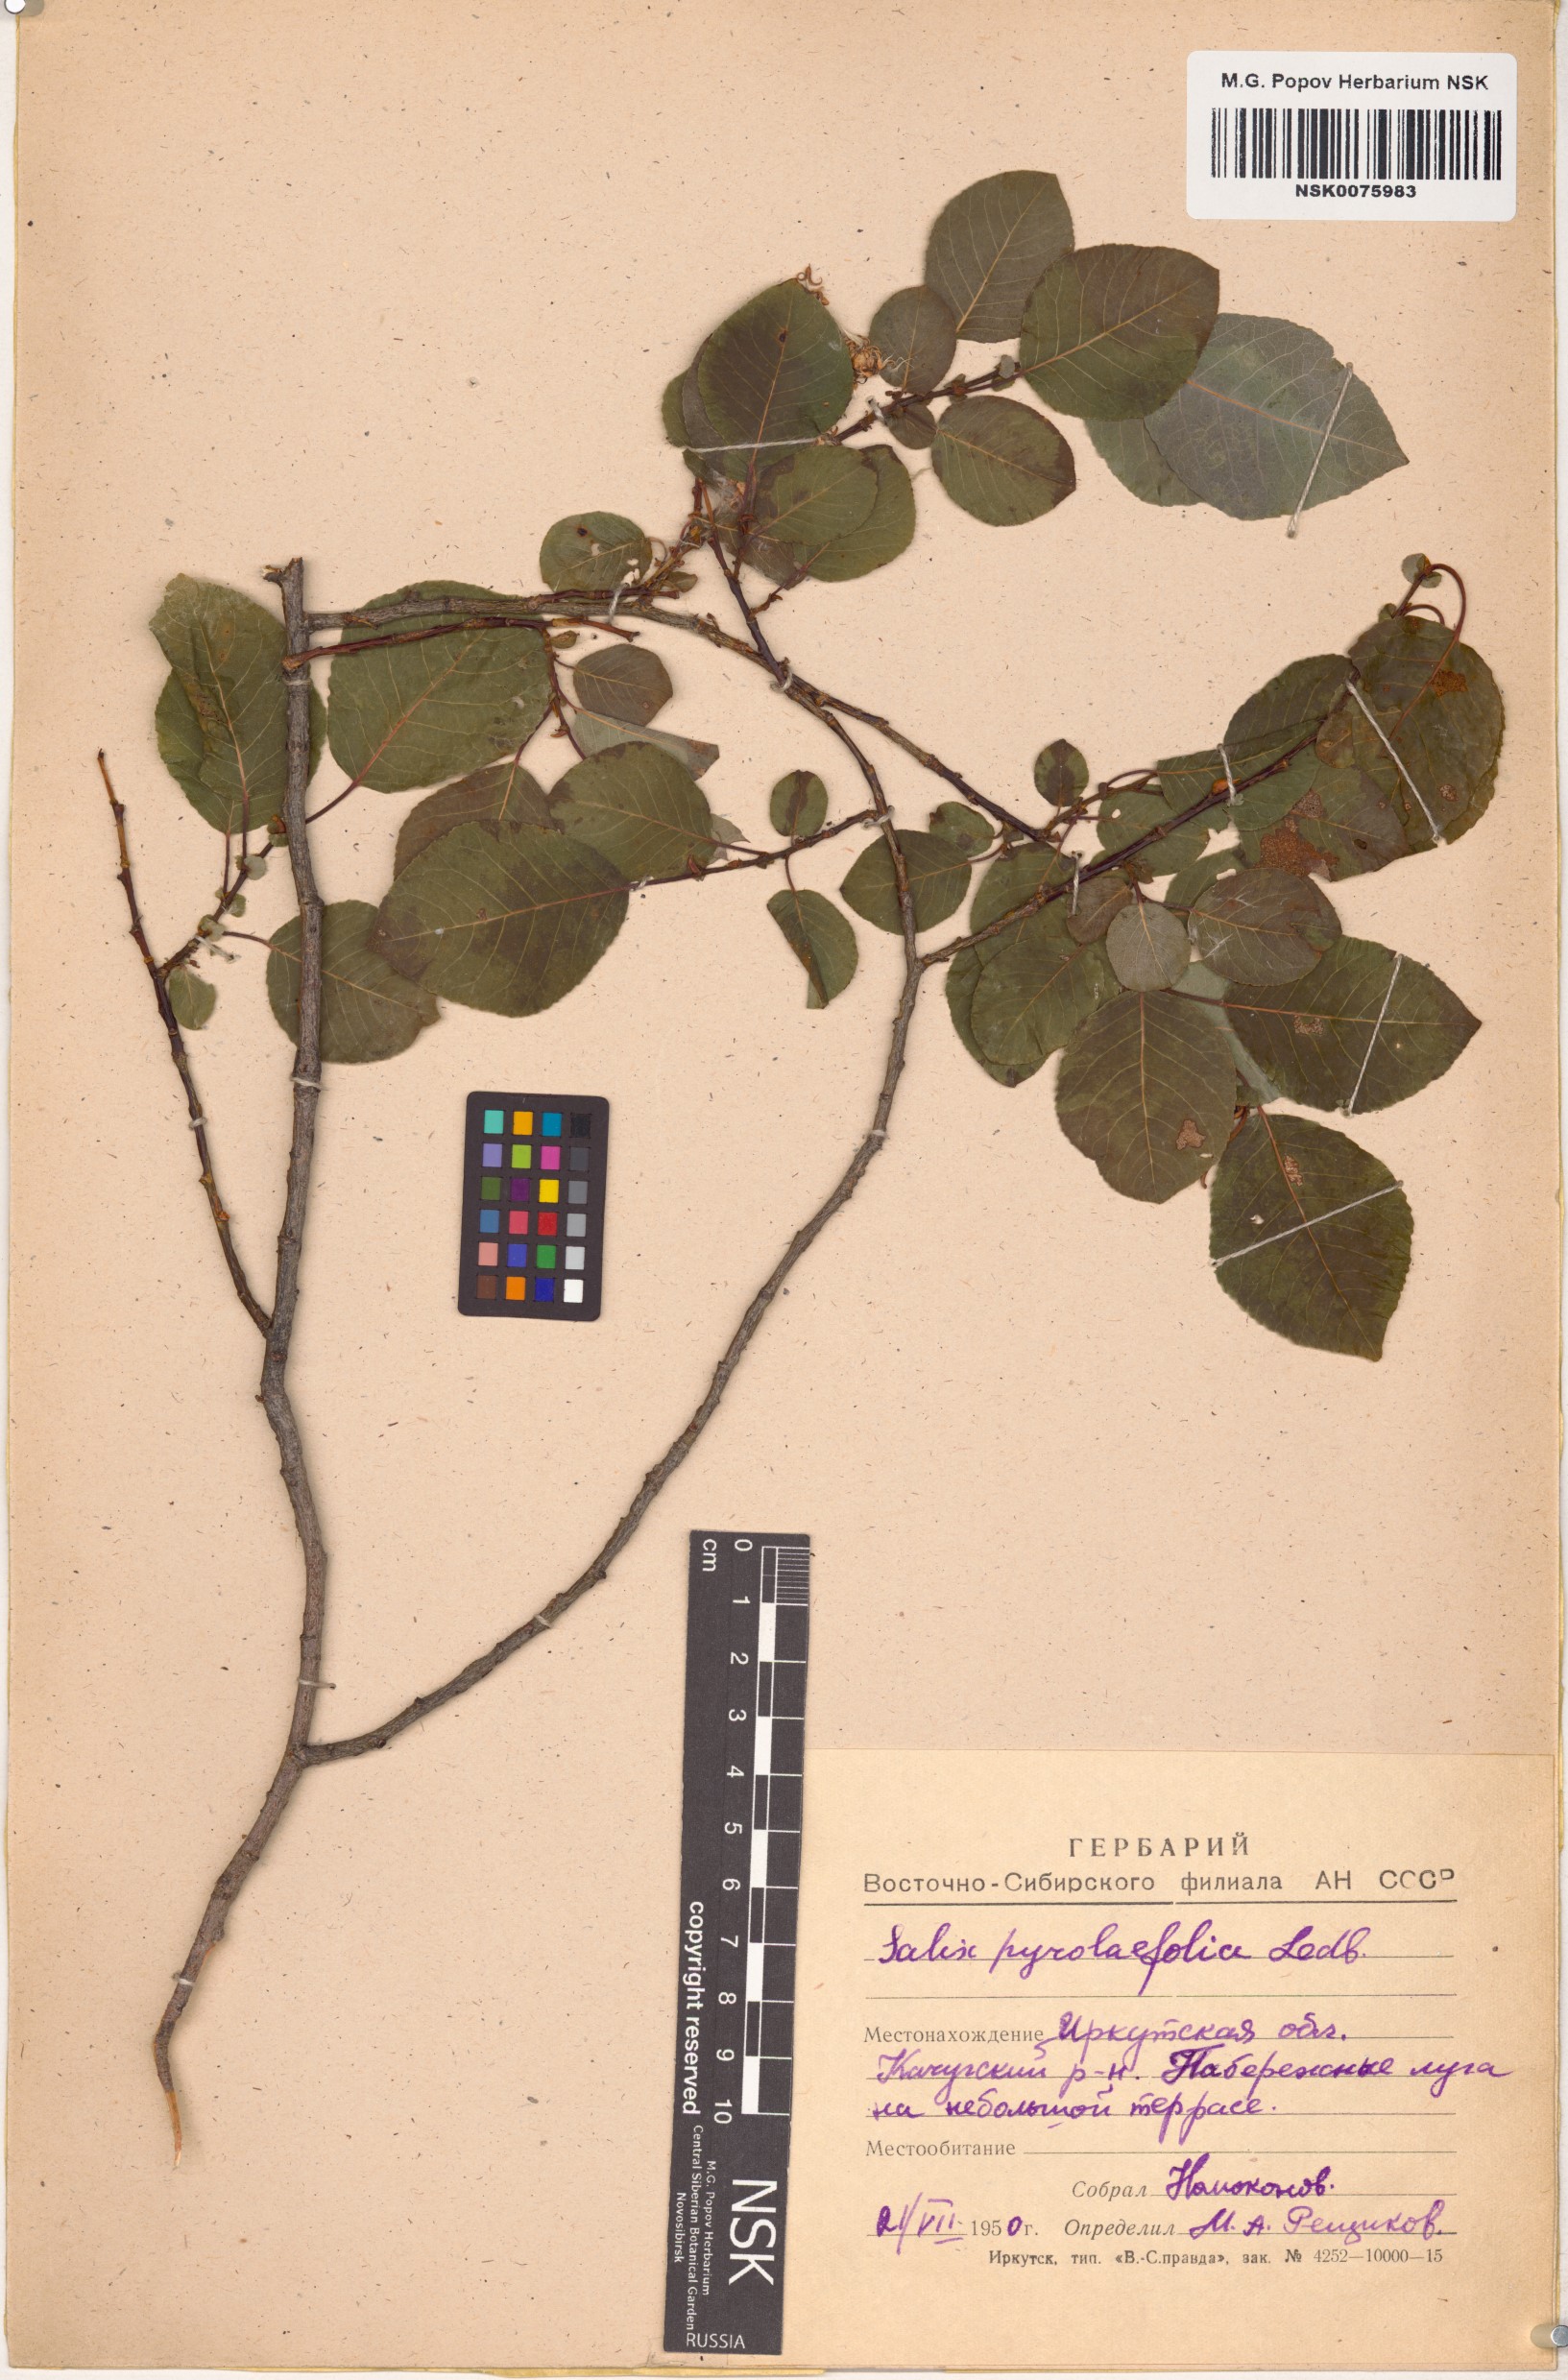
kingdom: Plantae
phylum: Tracheophyta
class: Magnoliopsida
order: Malpighiales
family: Salicaceae
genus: Salix
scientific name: Salix pyrolifolia
